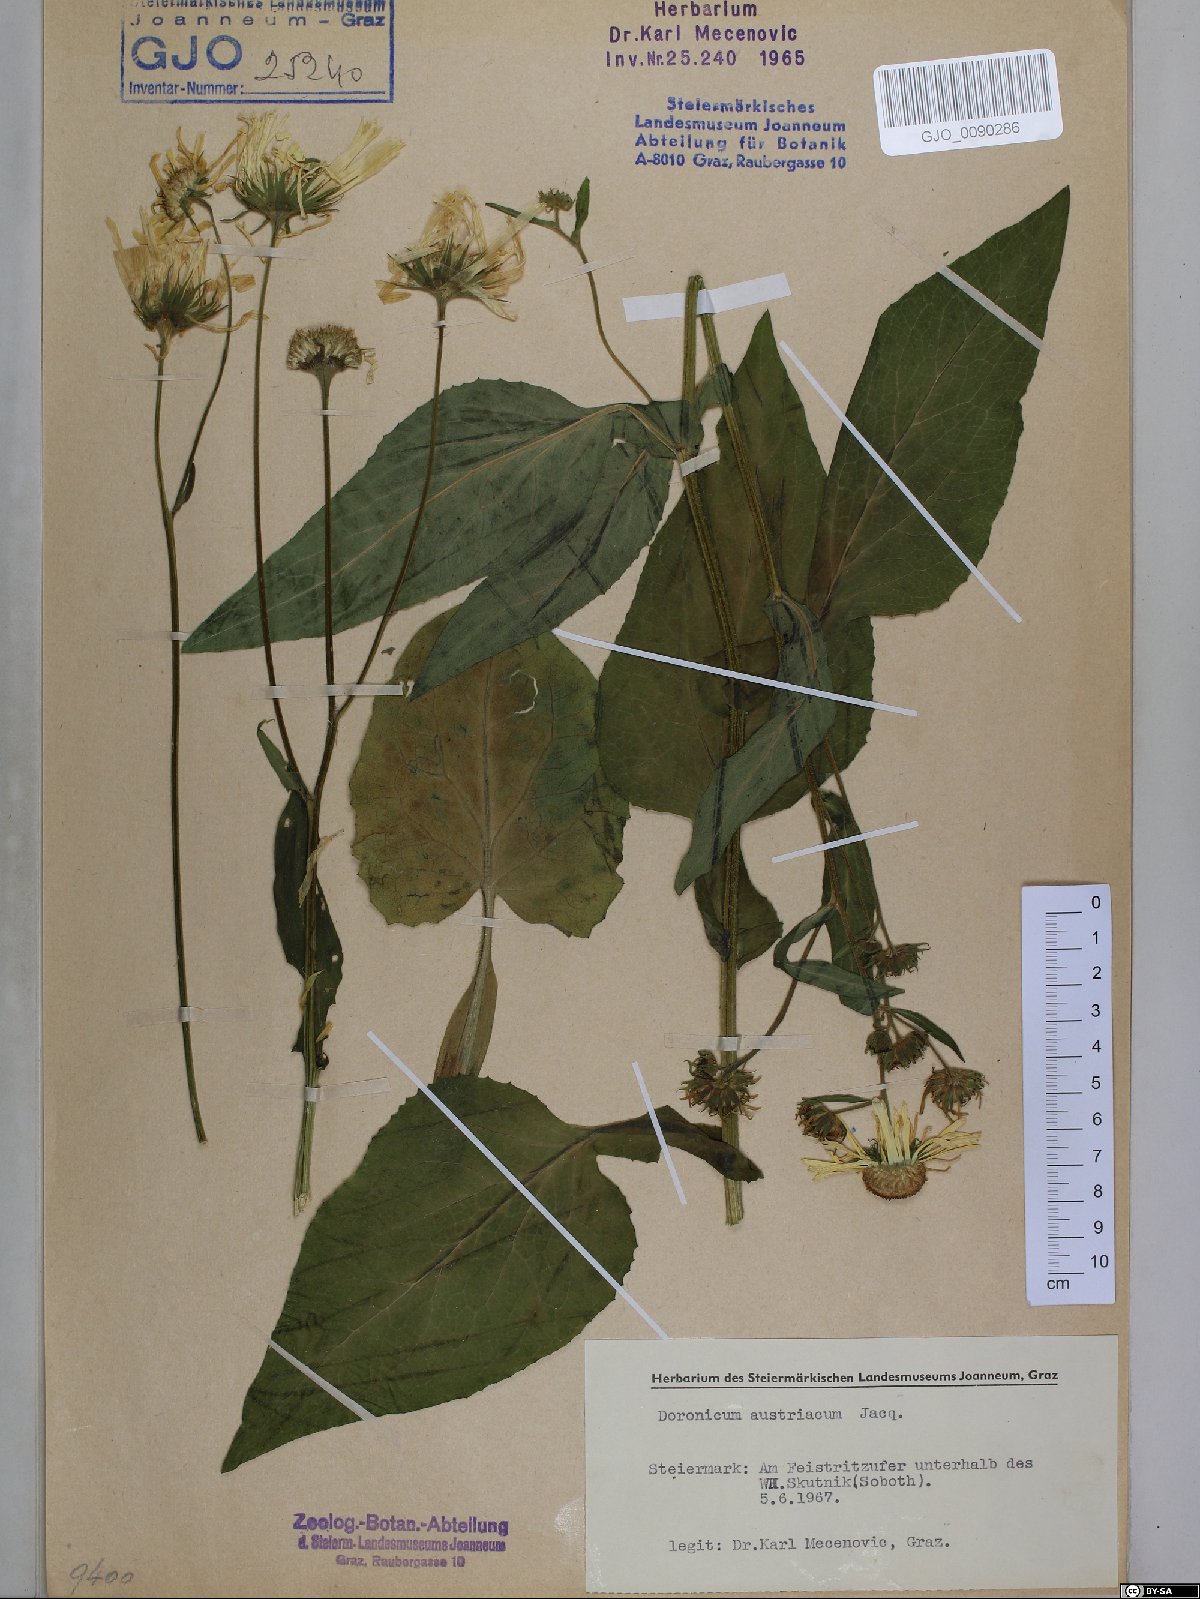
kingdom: Plantae
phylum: Tracheophyta
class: Magnoliopsida
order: Asterales
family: Asteraceae
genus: Doronicum
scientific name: Doronicum austriacum
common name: Austrian leopard's-bane
